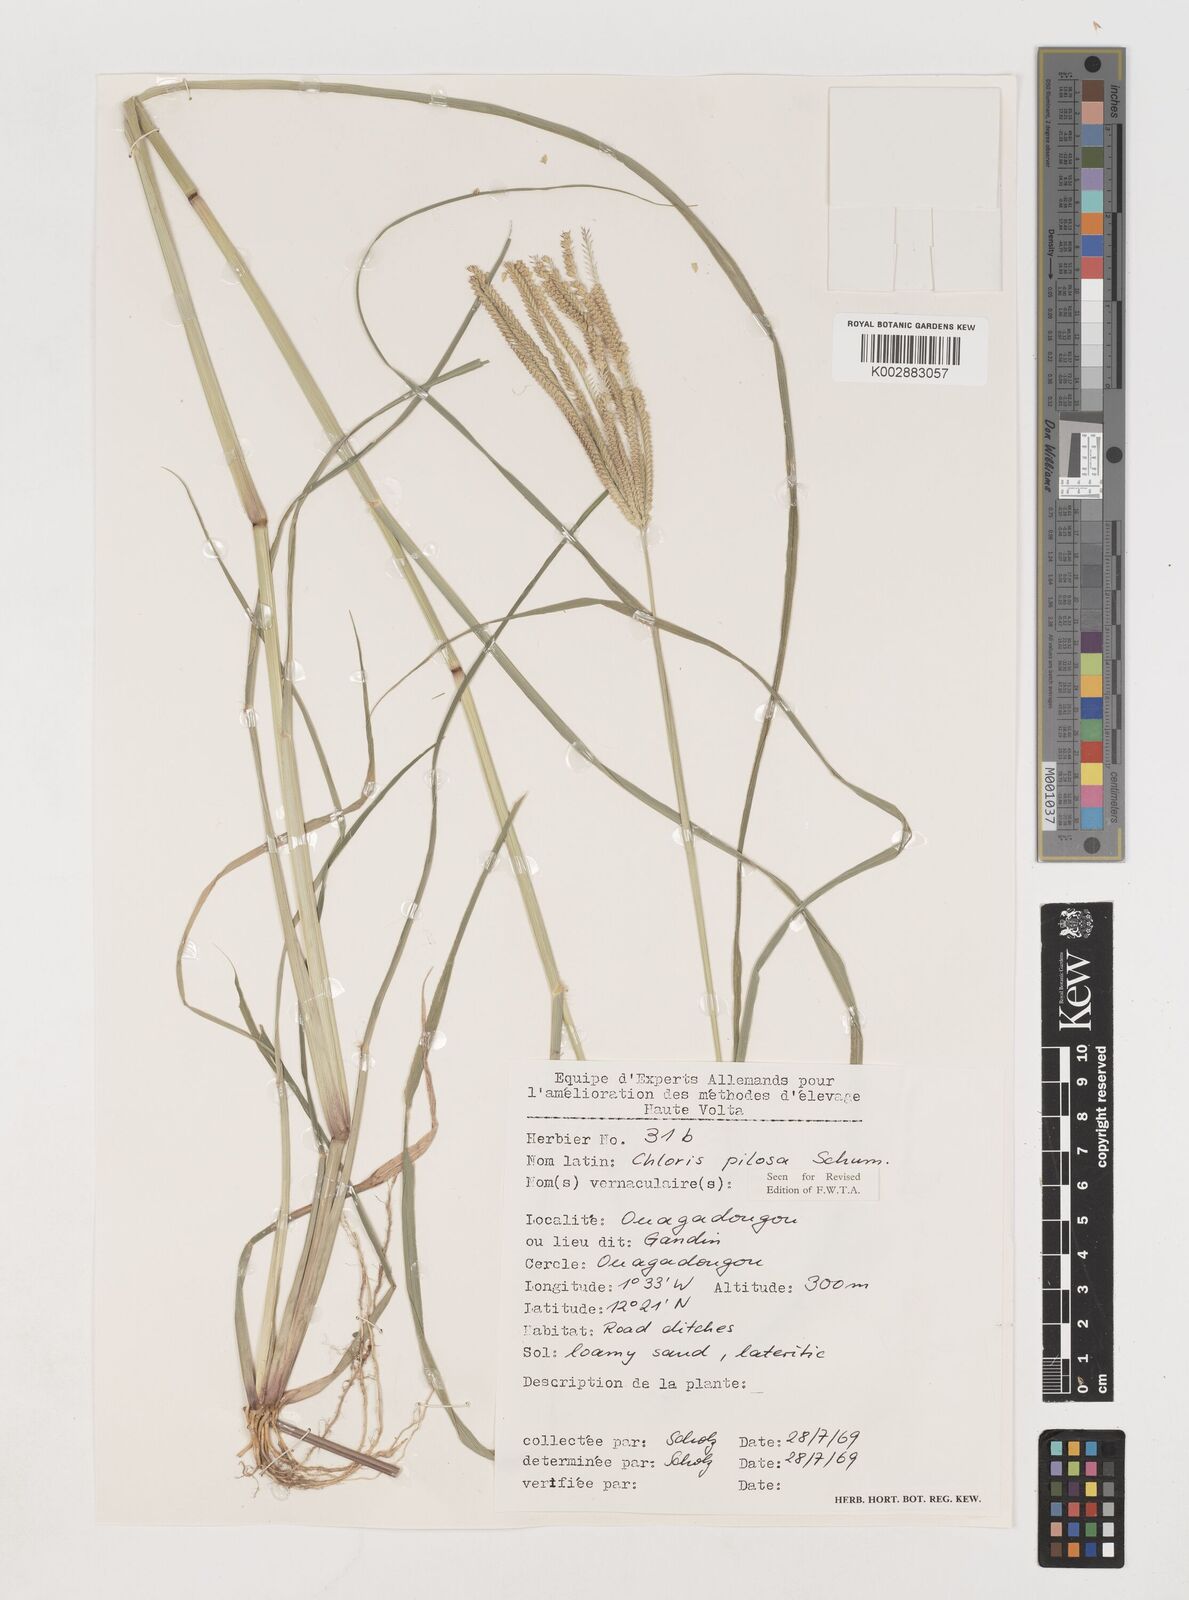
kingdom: Plantae
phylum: Tracheophyta
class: Liliopsida
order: Poales
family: Poaceae
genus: Chloris
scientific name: Chloris pilosa
